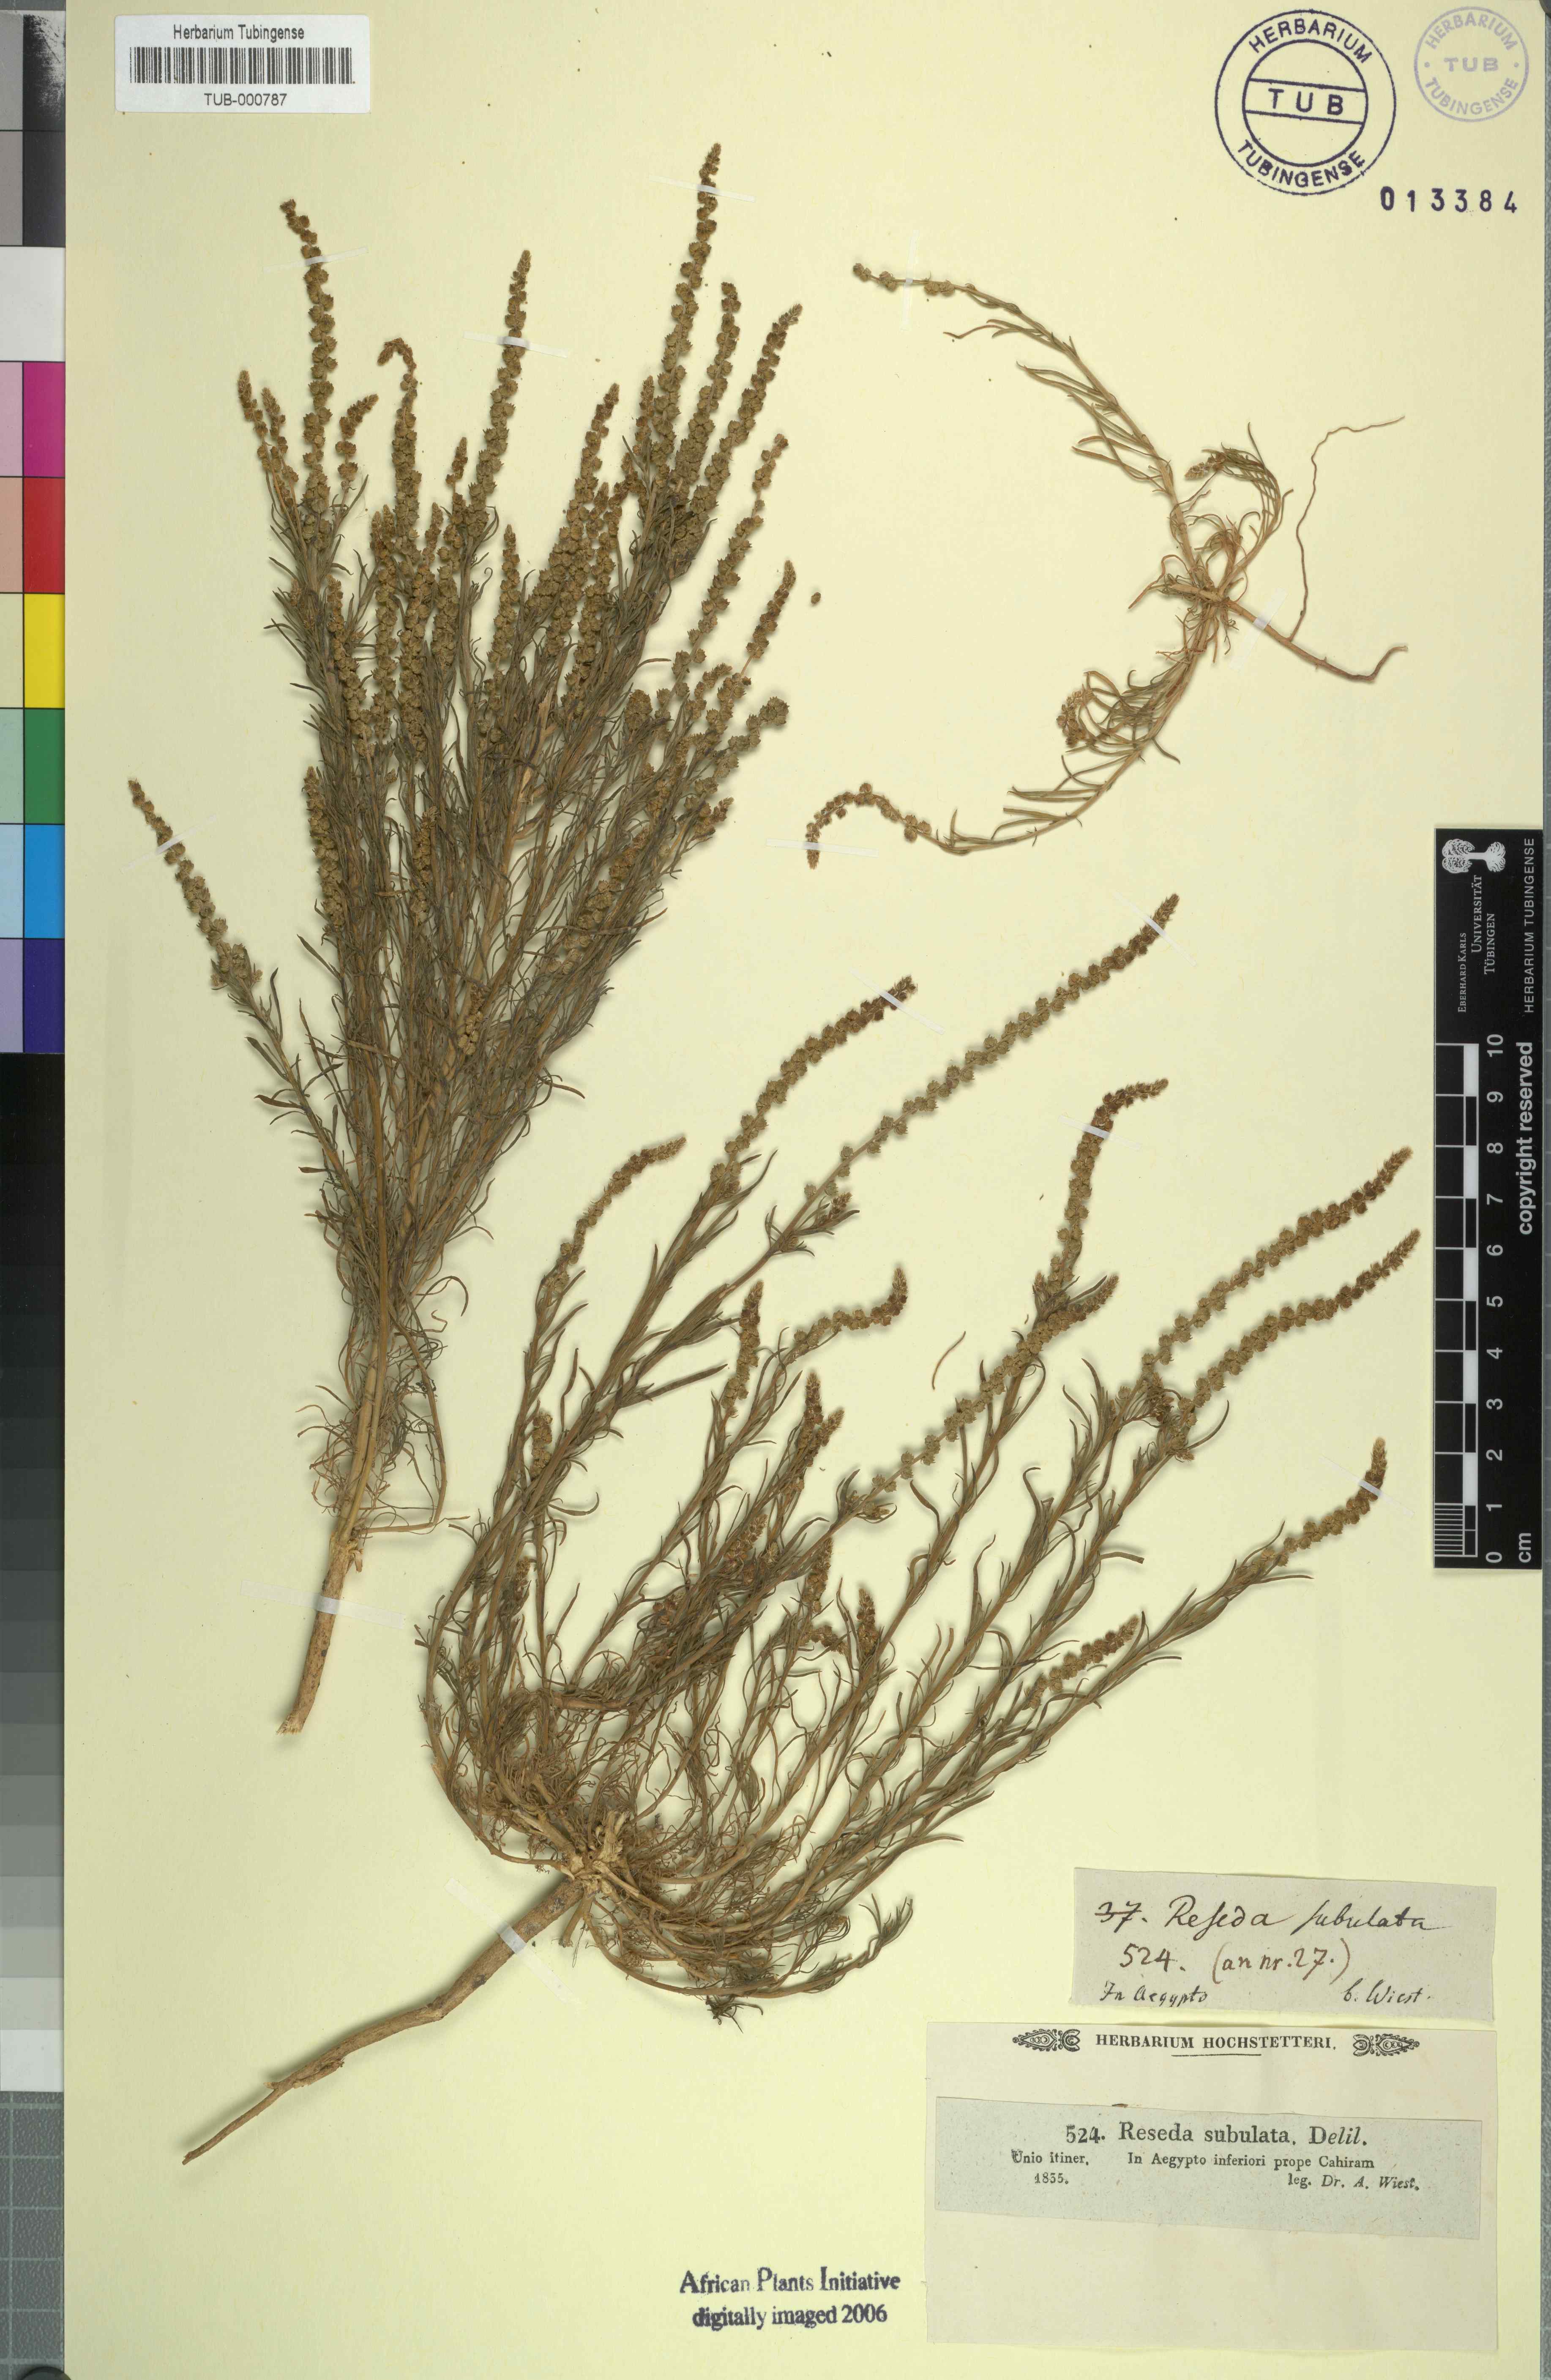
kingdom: Plantae
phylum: Tracheophyta
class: Magnoliopsida
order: Brassicales
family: Resedaceae
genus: Oligomeris
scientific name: Oligomeris linifolia
